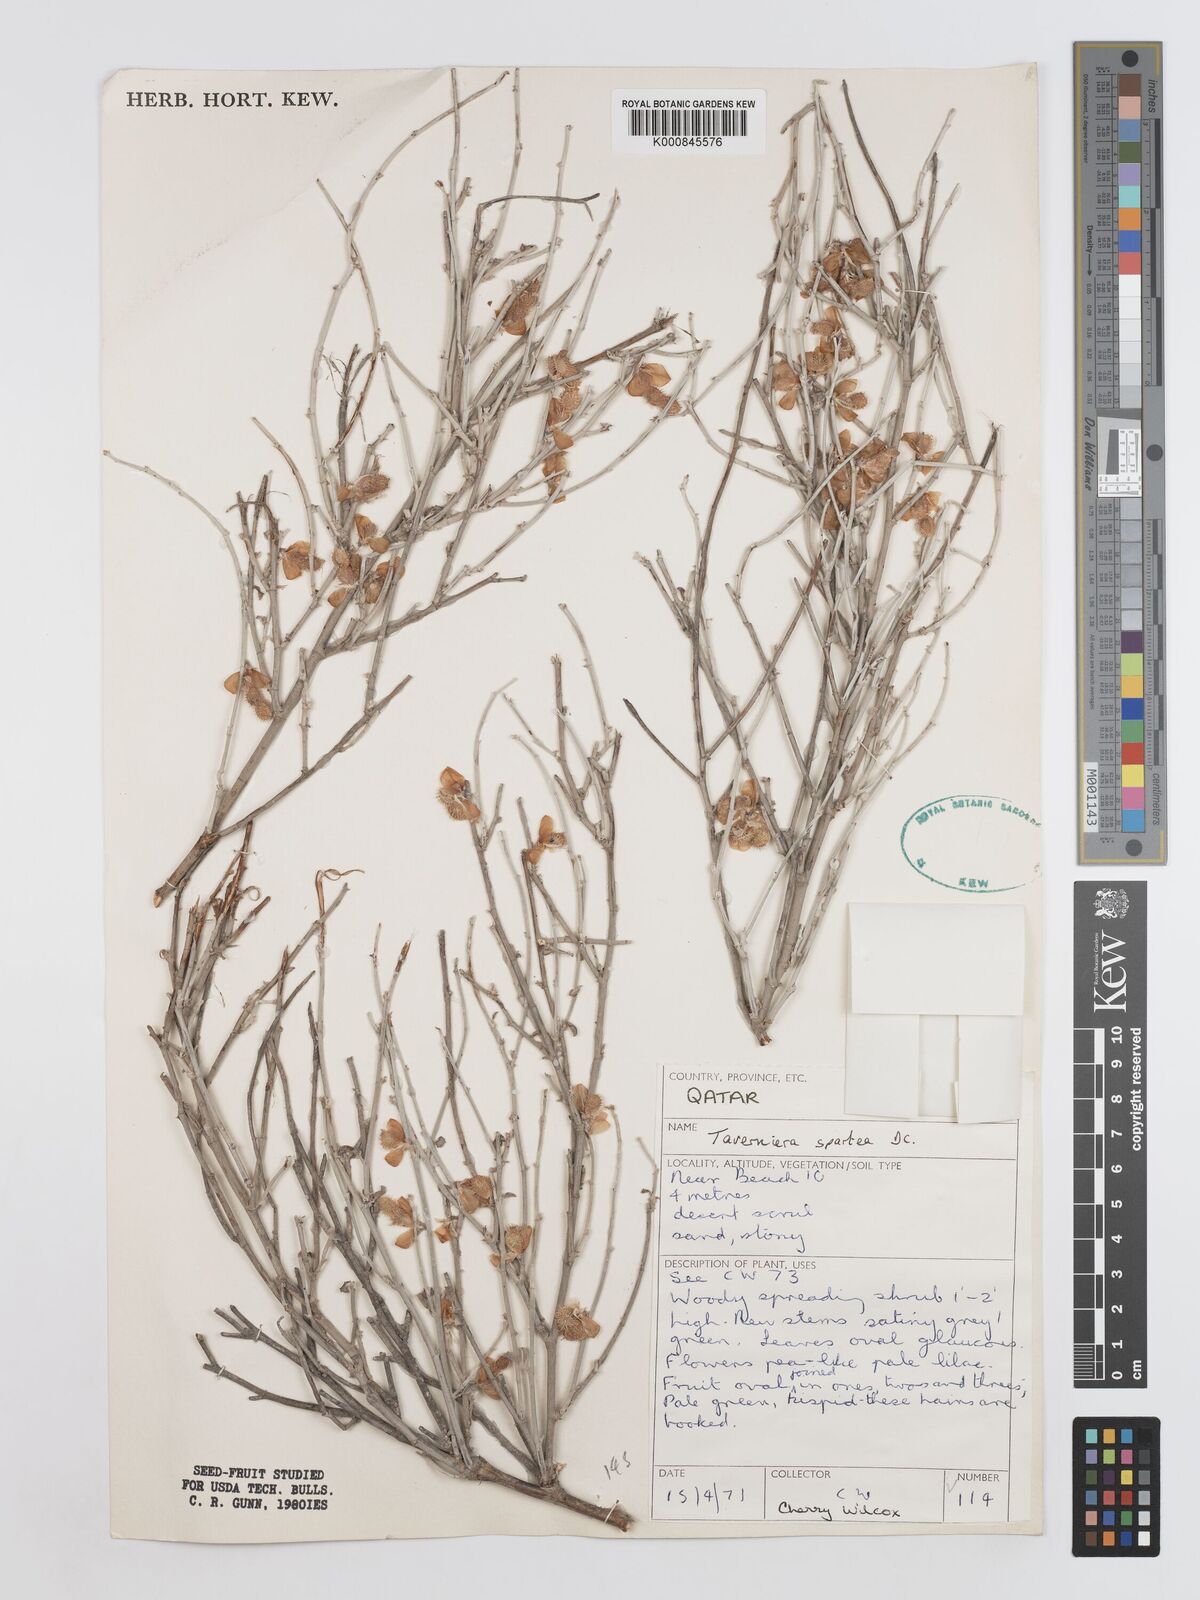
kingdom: Plantae
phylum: Tracheophyta
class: Magnoliopsida
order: Fabales
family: Fabaceae
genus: Taverniera
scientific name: Taverniera spartea
